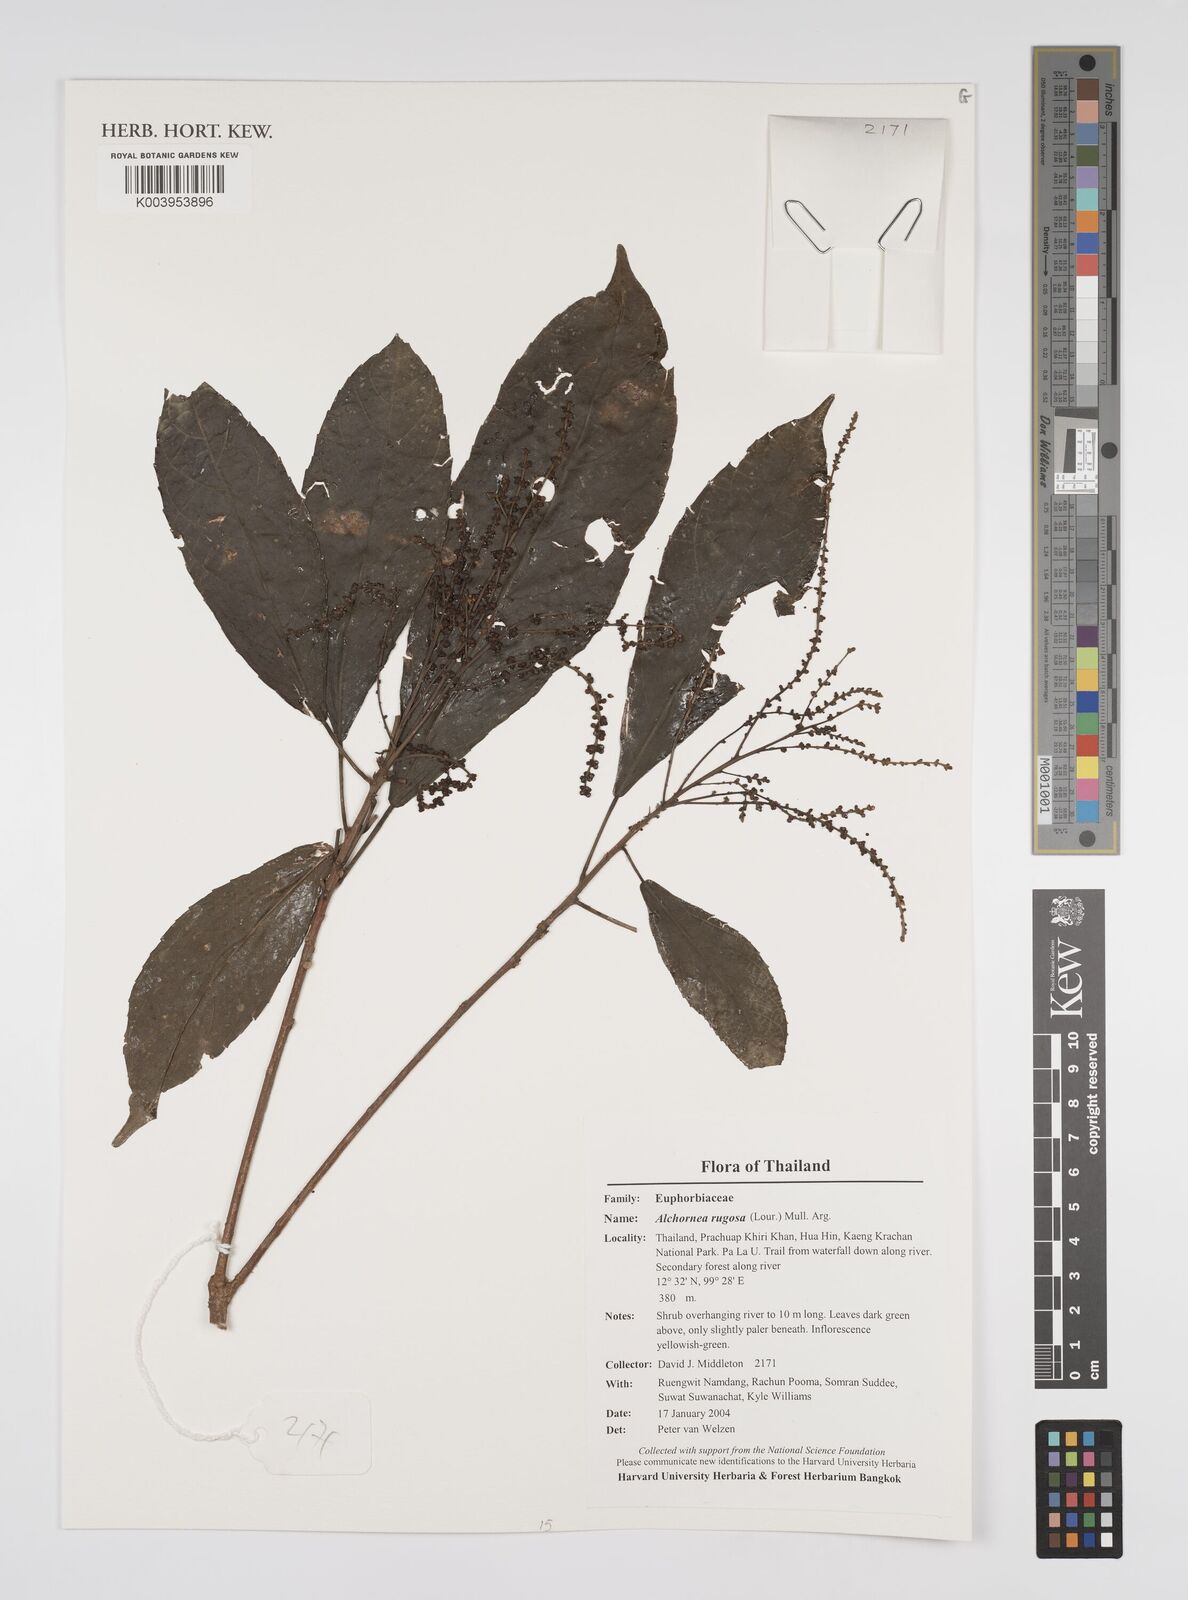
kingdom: Plantae
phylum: Tracheophyta
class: Magnoliopsida
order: Malpighiales
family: Euphorbiaceae
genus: Alchornea
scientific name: Alchornea rugosa
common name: Alchorntree
